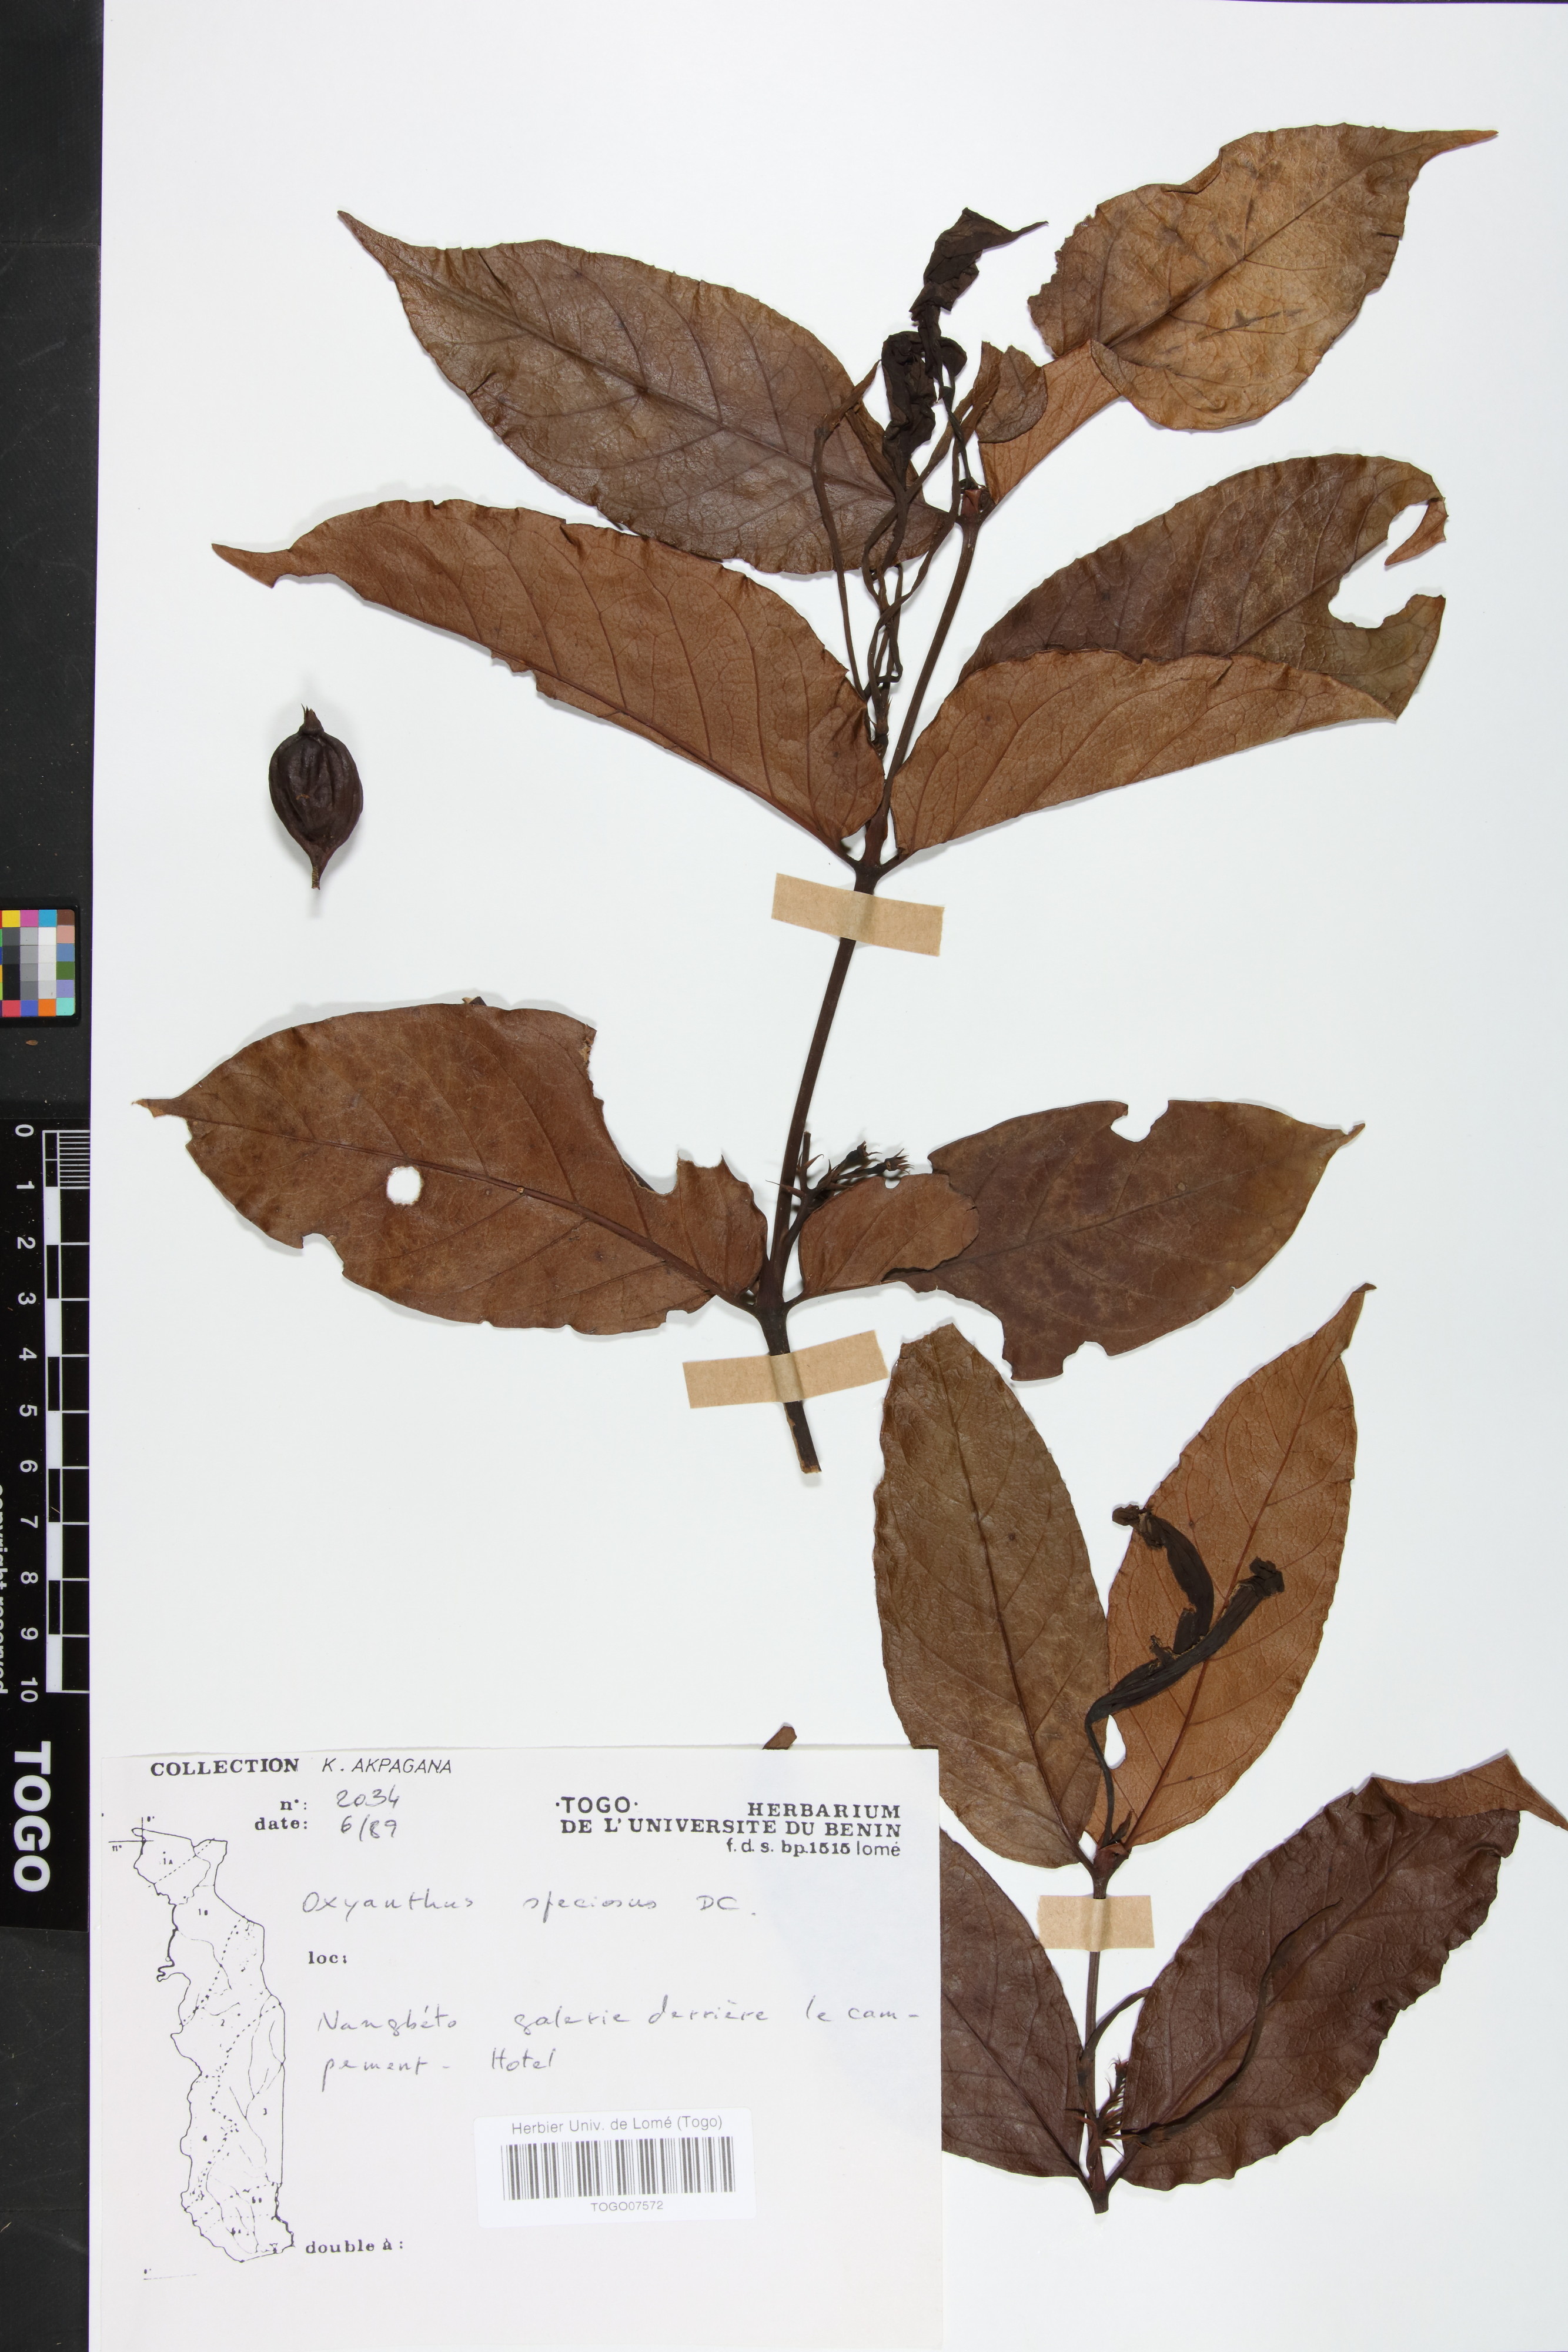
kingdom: Plantae
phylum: Tracheophyta
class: Magnoliopsida
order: Gentianales
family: Rubiaceae
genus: Oxyanthus
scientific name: Oxyanthus speciosus
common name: Whipstick loquat
